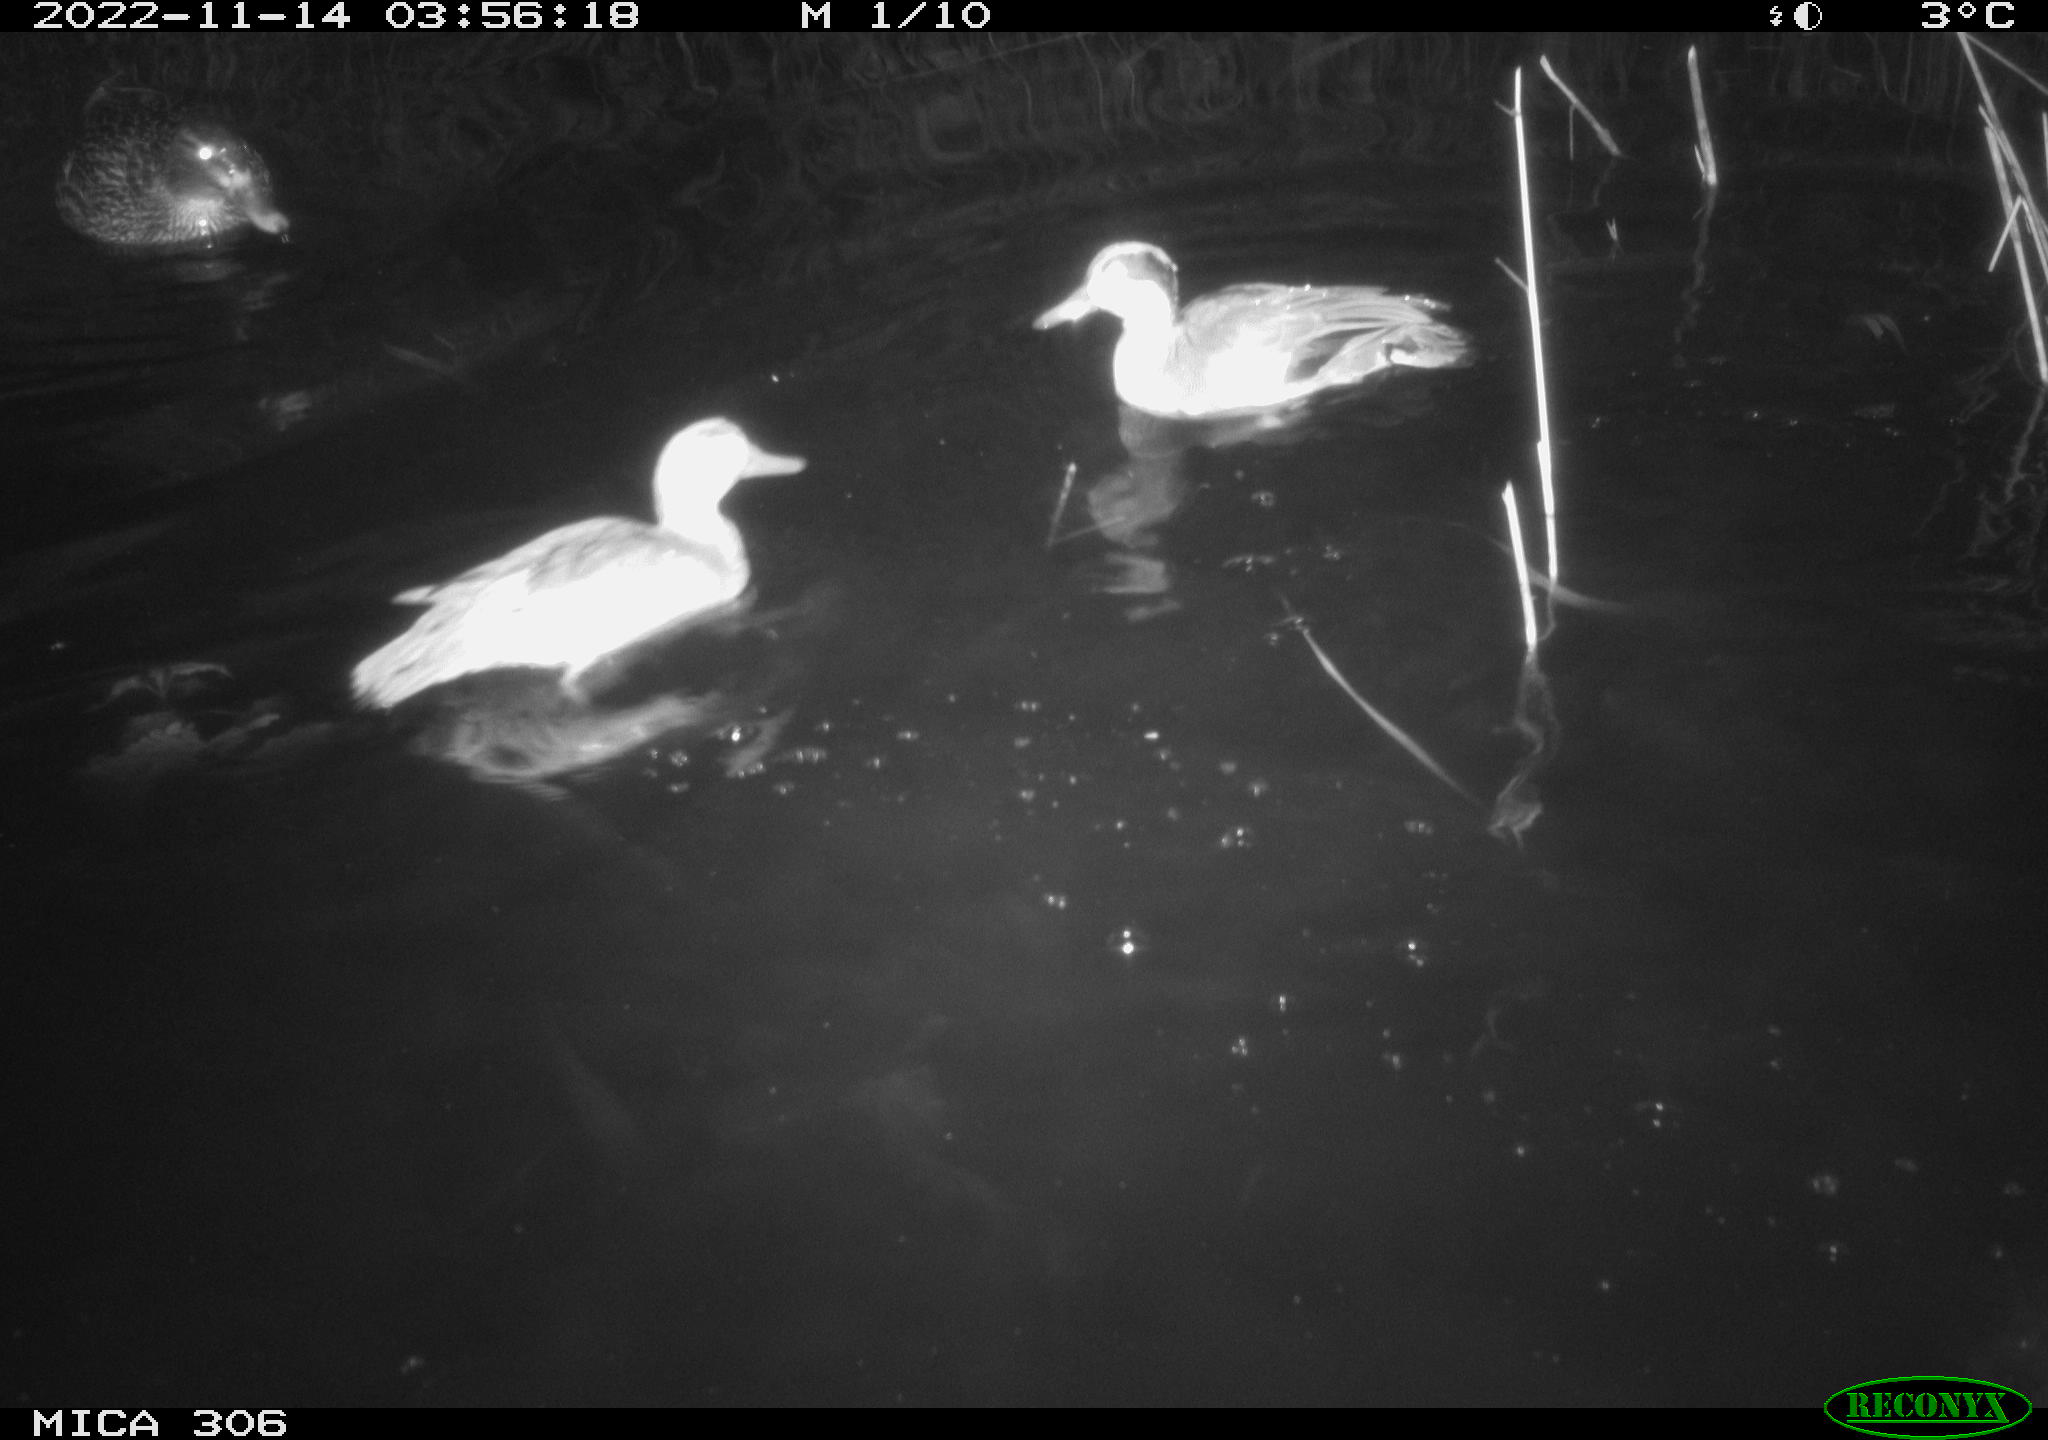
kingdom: Animalia
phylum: Chordata
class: Aves
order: Anseriformes
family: Anatidae
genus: Anas
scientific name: Anas
